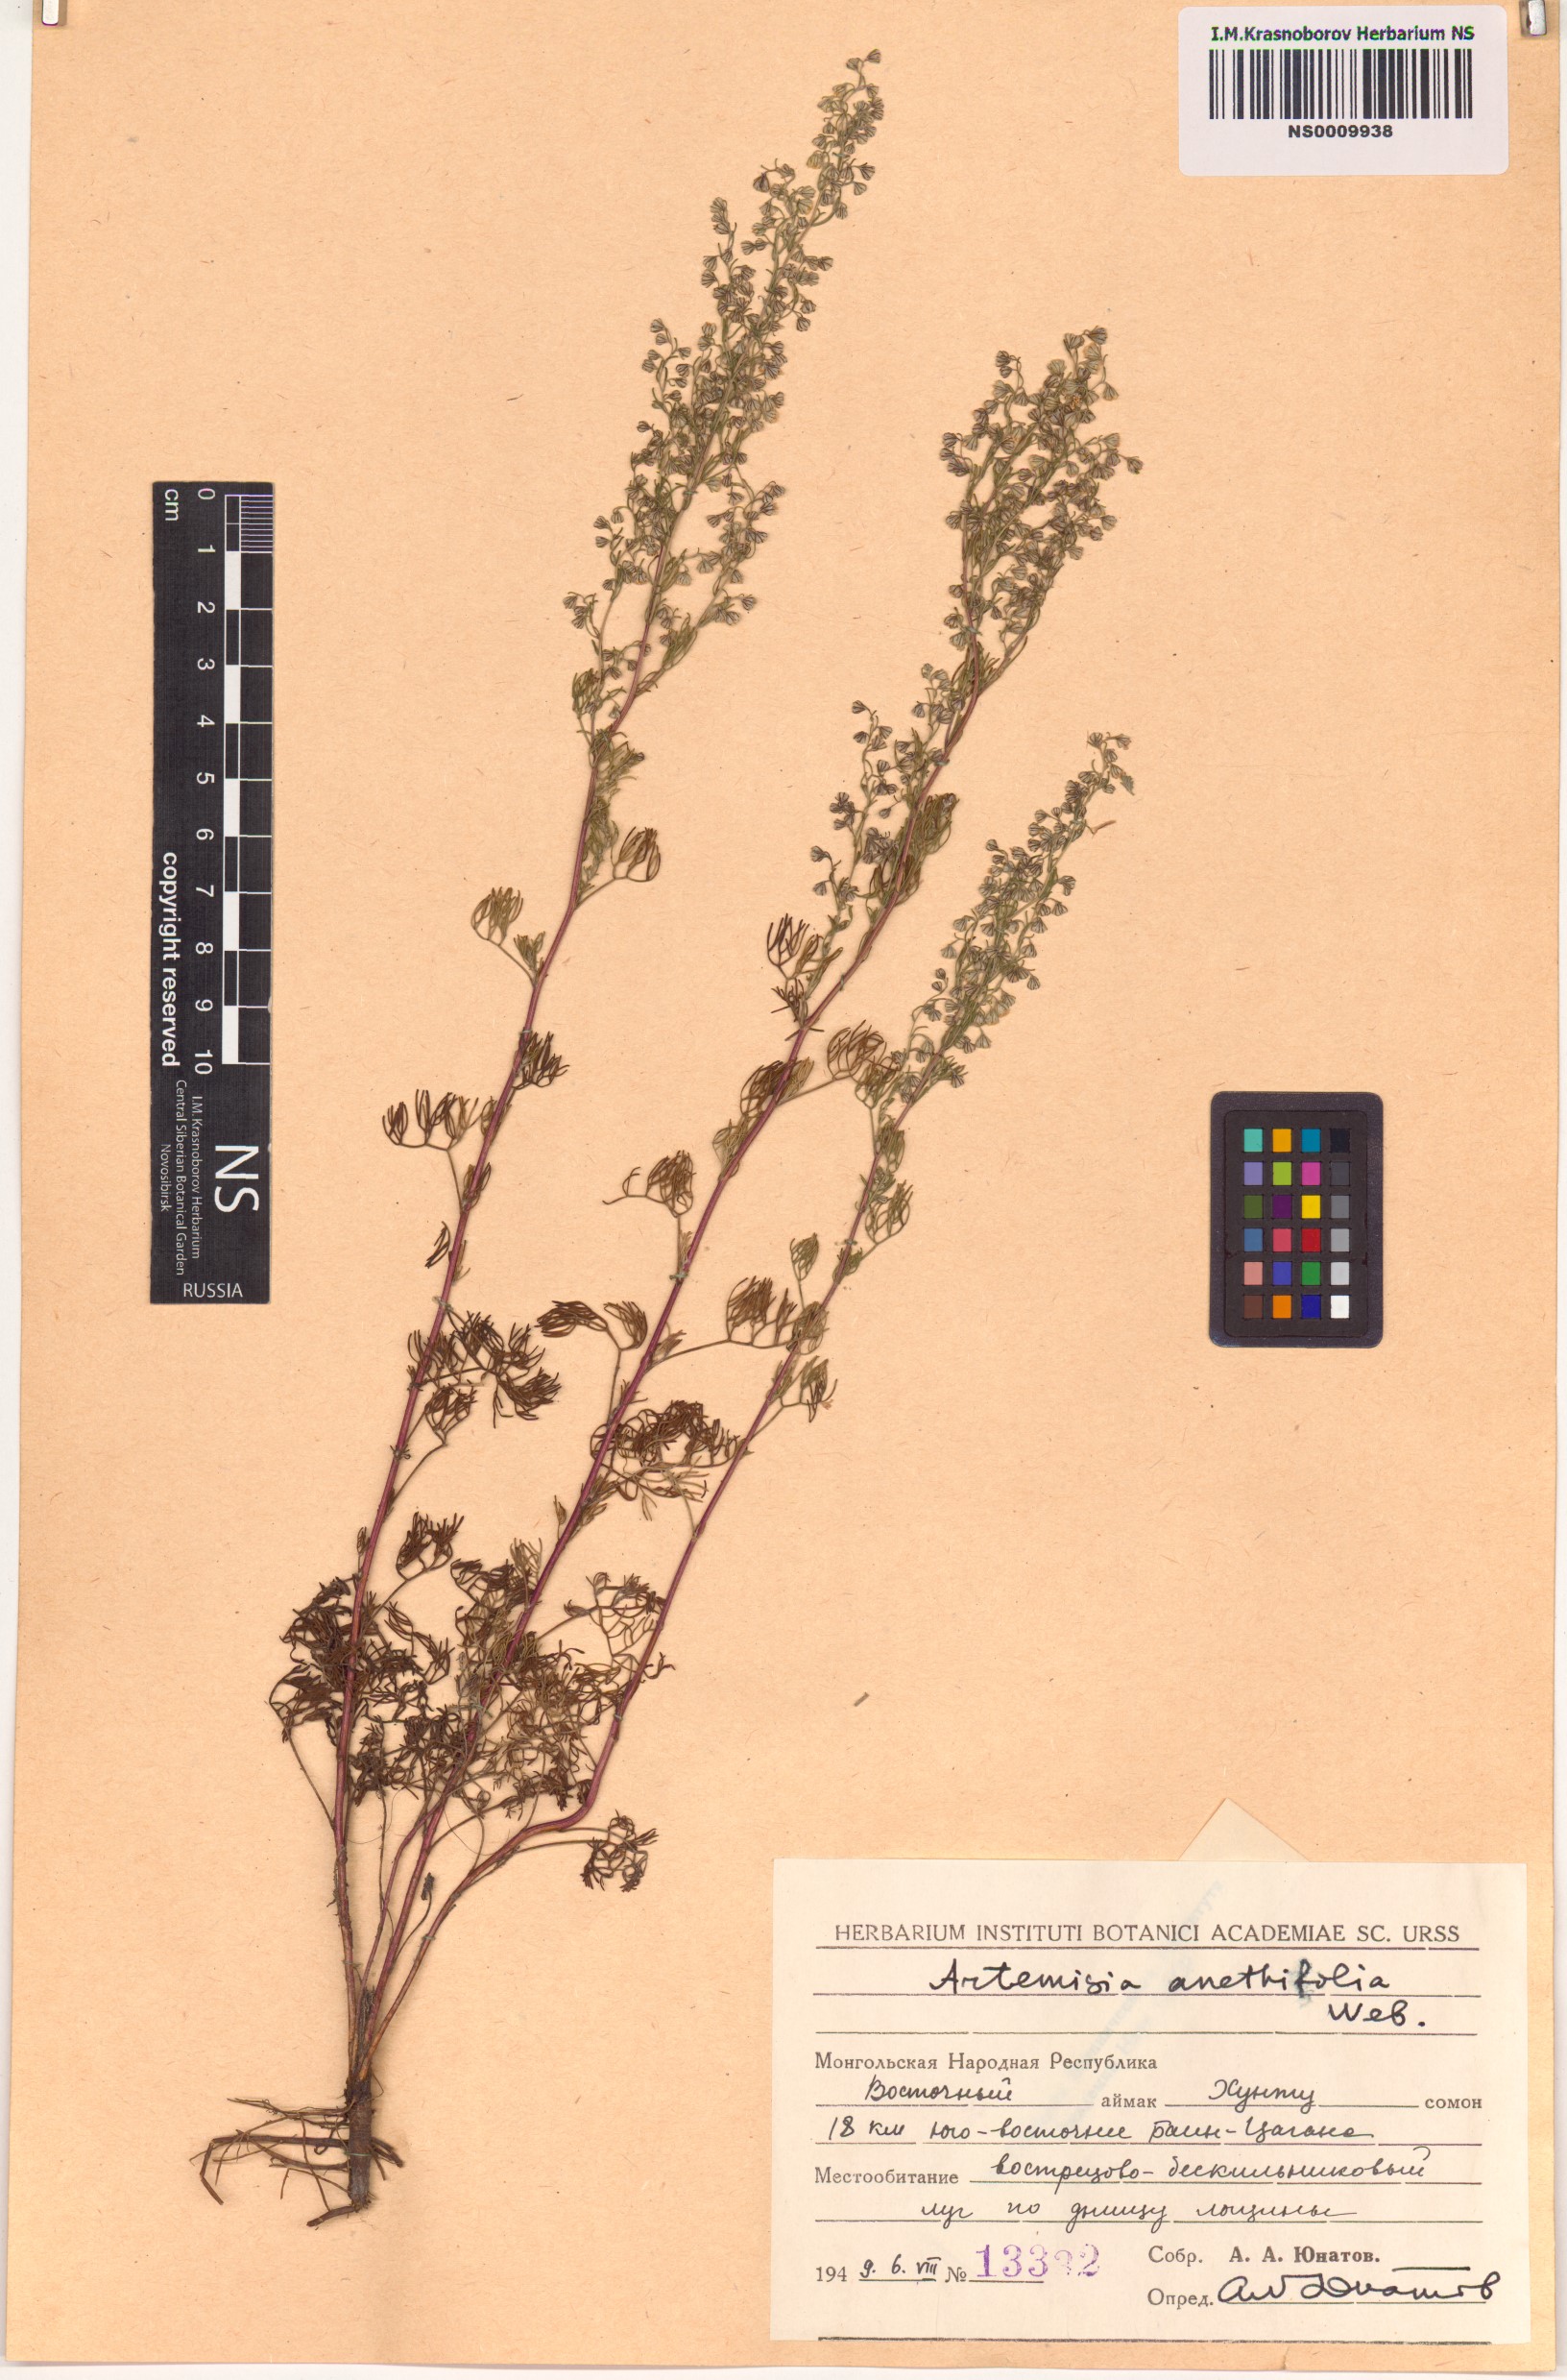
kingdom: Plantae
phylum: Tracheophyta
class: Magnoliopsida
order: Asterales
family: Asteraceae
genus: Artemisia
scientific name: Artemisia anethifolia
